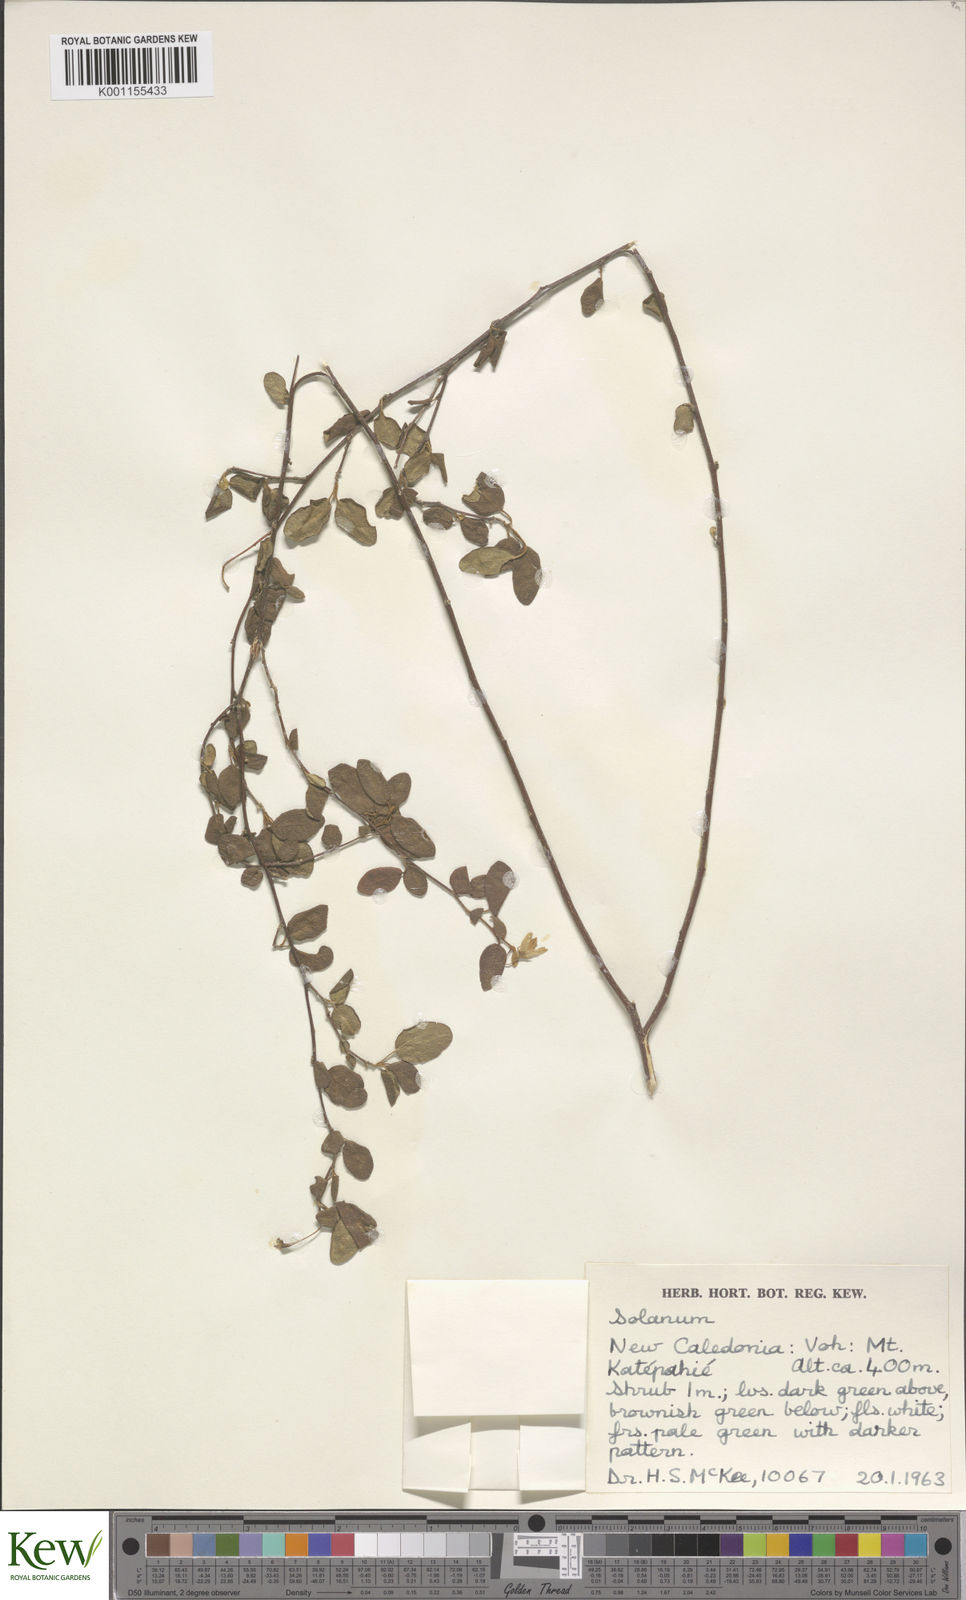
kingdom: Plantae
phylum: Tracheophyta
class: Magnoliopsida
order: Solanales
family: Solanaceae
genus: Solanum
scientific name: Solanum vaccinioides
